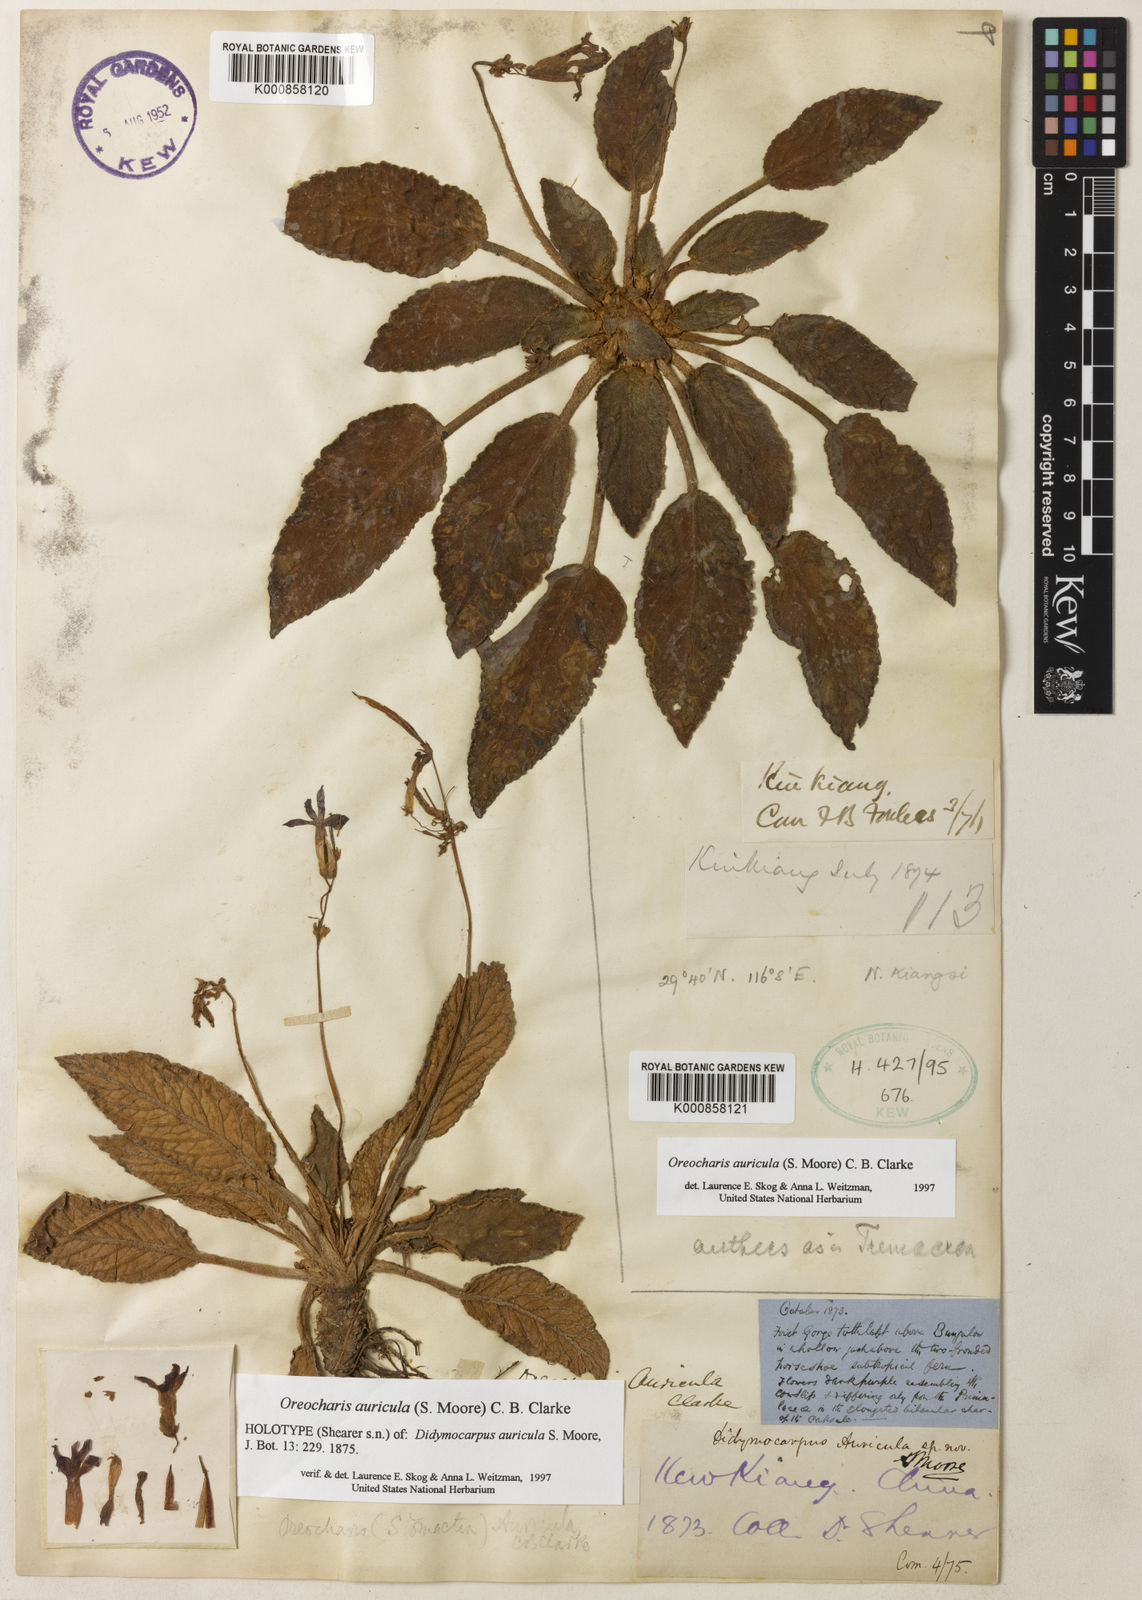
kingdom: Plantae
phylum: Tracheophyta
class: Magnoliopsida
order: Lamiales
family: Gesneriaceae
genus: Oreocharis
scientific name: Oreocharis auricula
